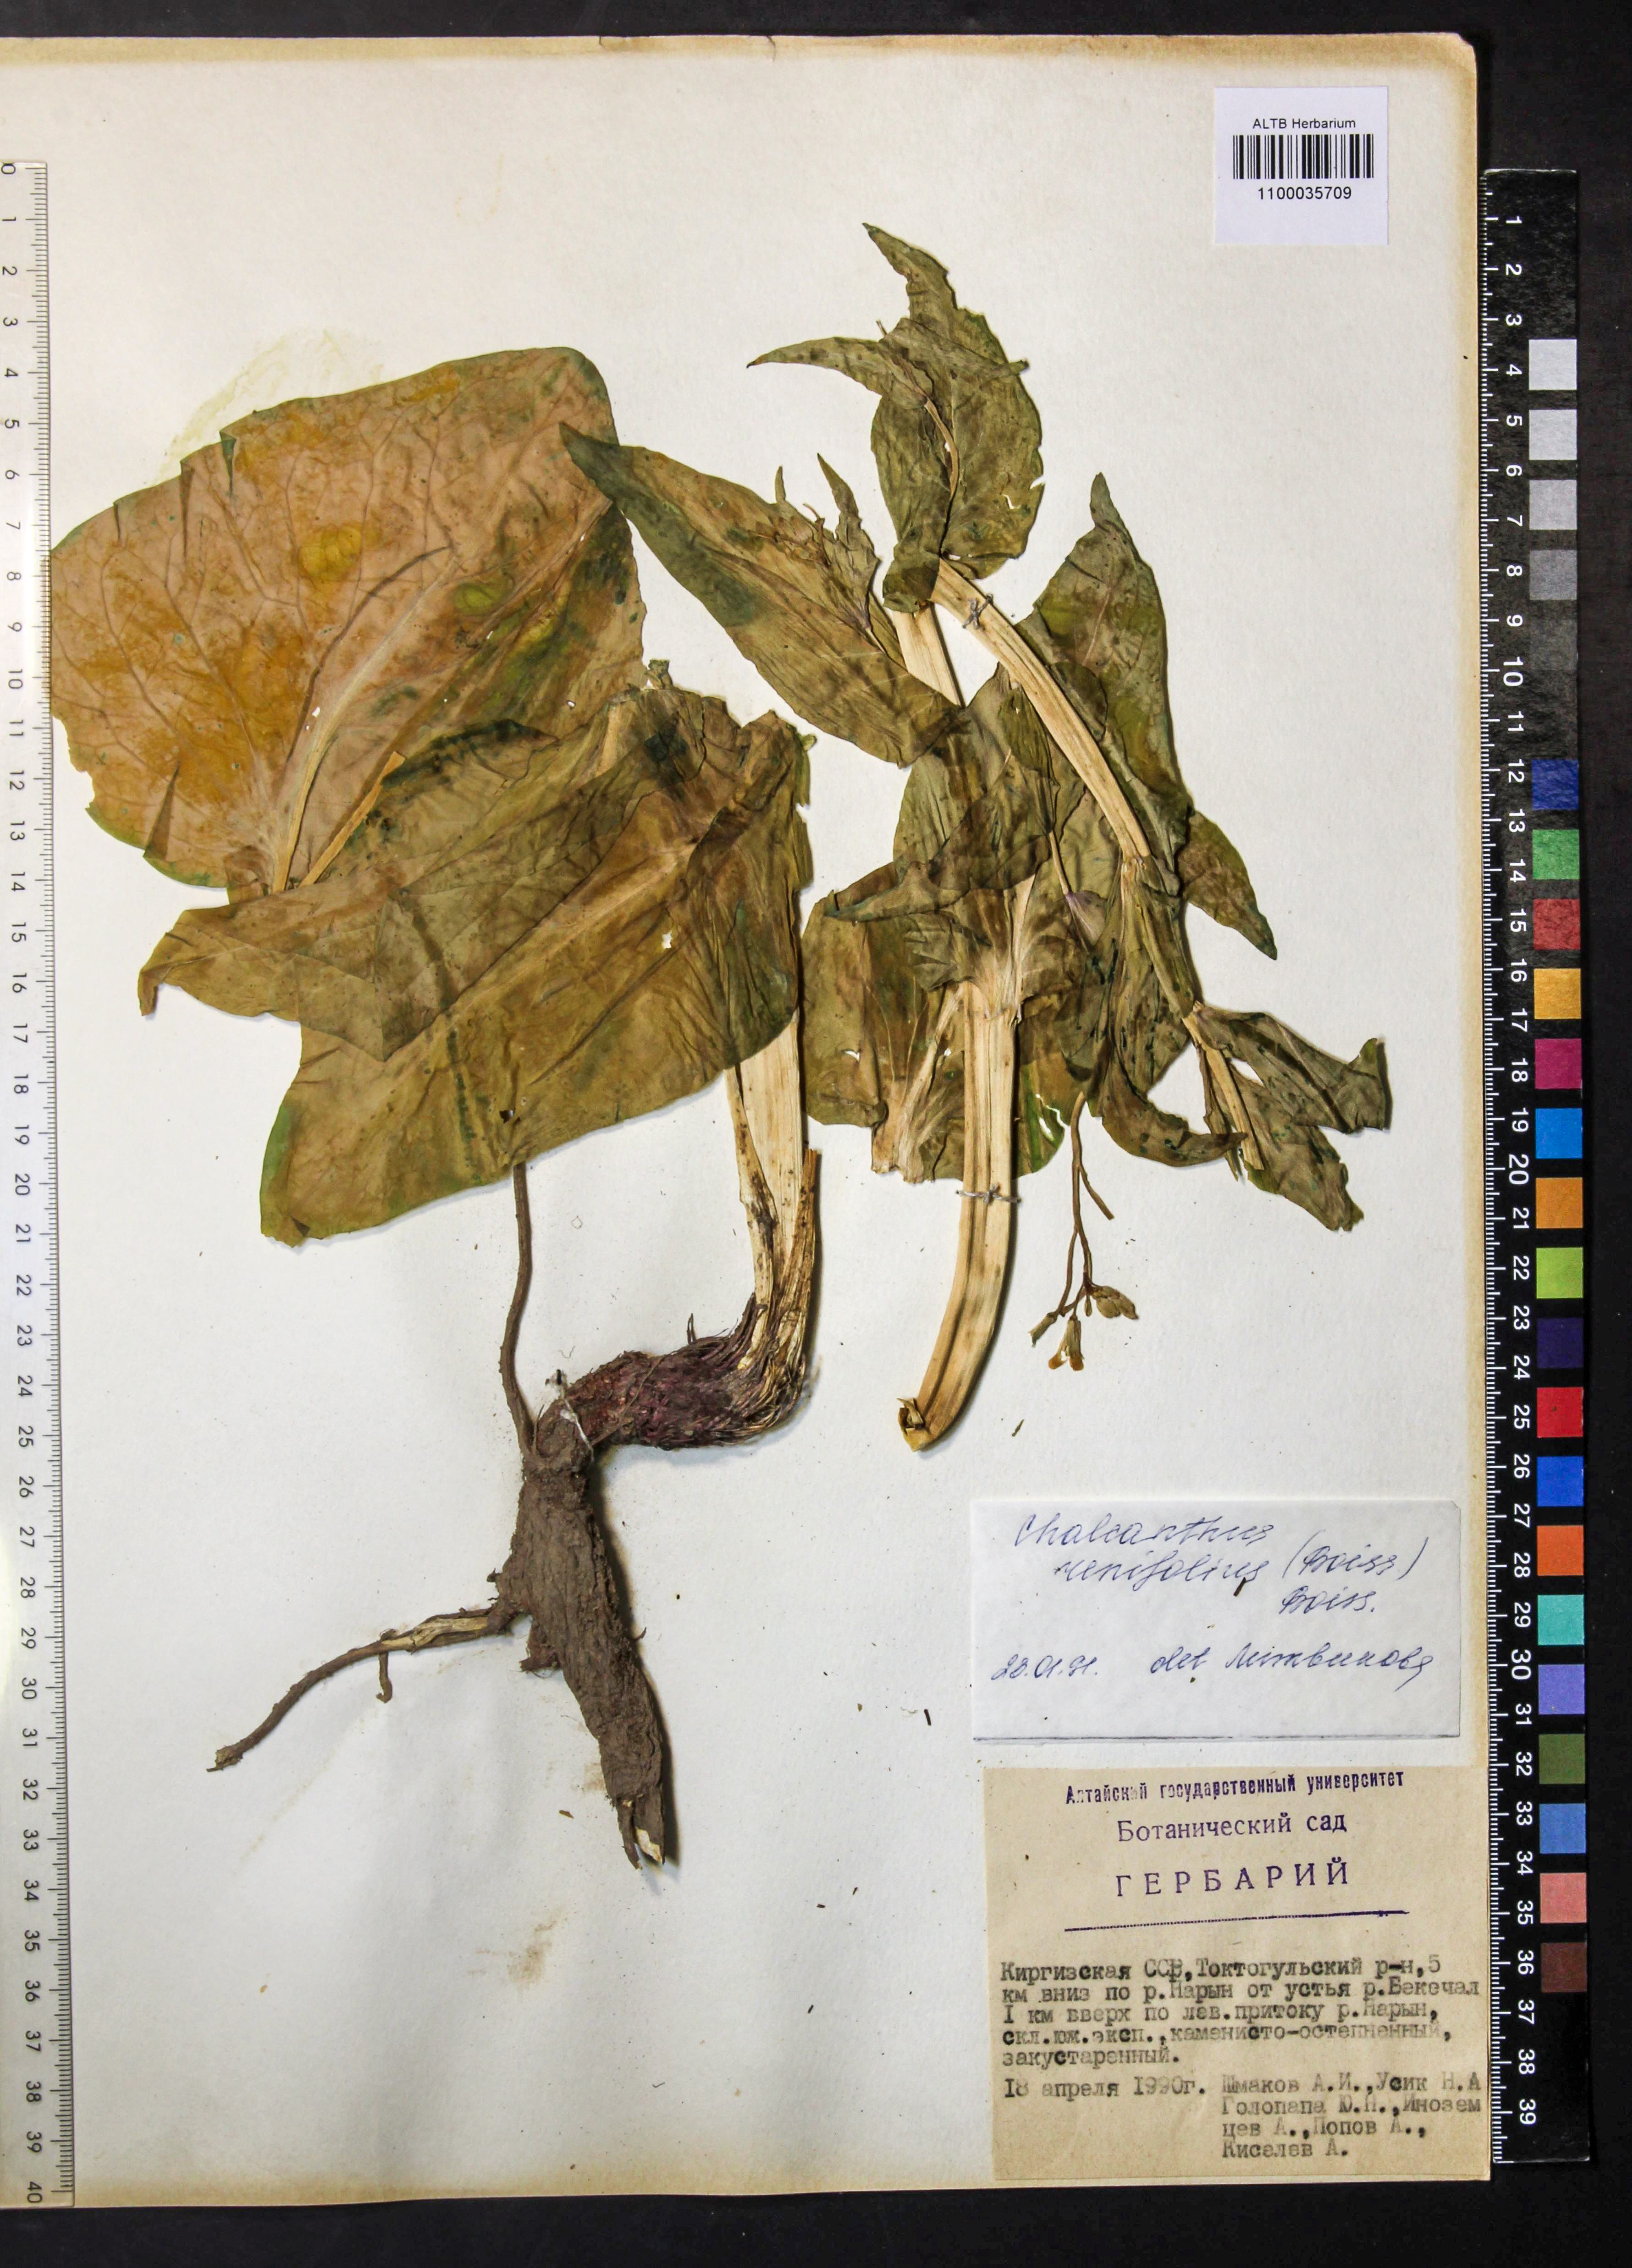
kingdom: Plantae
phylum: Tracheophyta
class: Magnoliopsida
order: Brassicales
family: Brassicaceae
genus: Eutrema
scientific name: Eutrema renifolium
